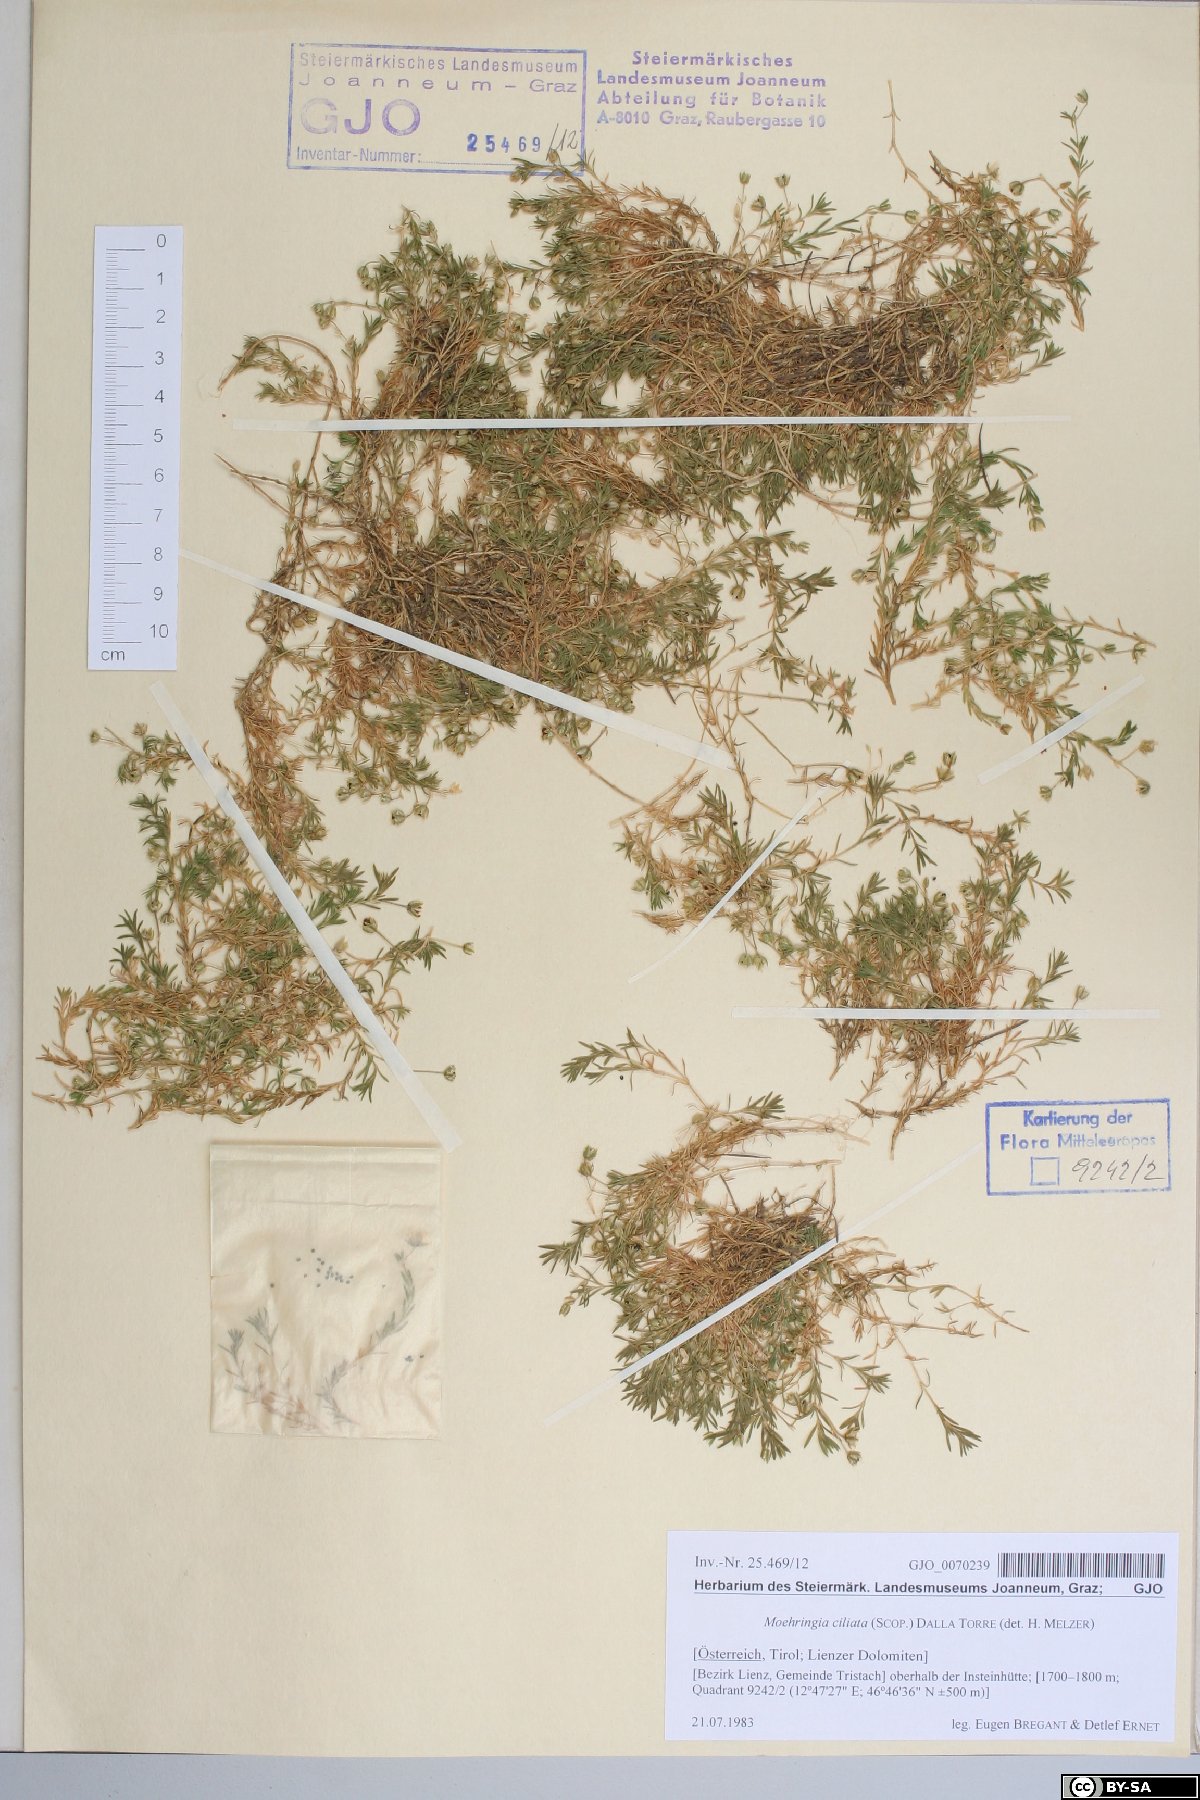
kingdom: Plantae
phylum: Tracheophyta
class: Magnoliopsida
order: Caryophyllales
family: Caryophyllaceae
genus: Moehringia
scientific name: Moehringia ciliata
